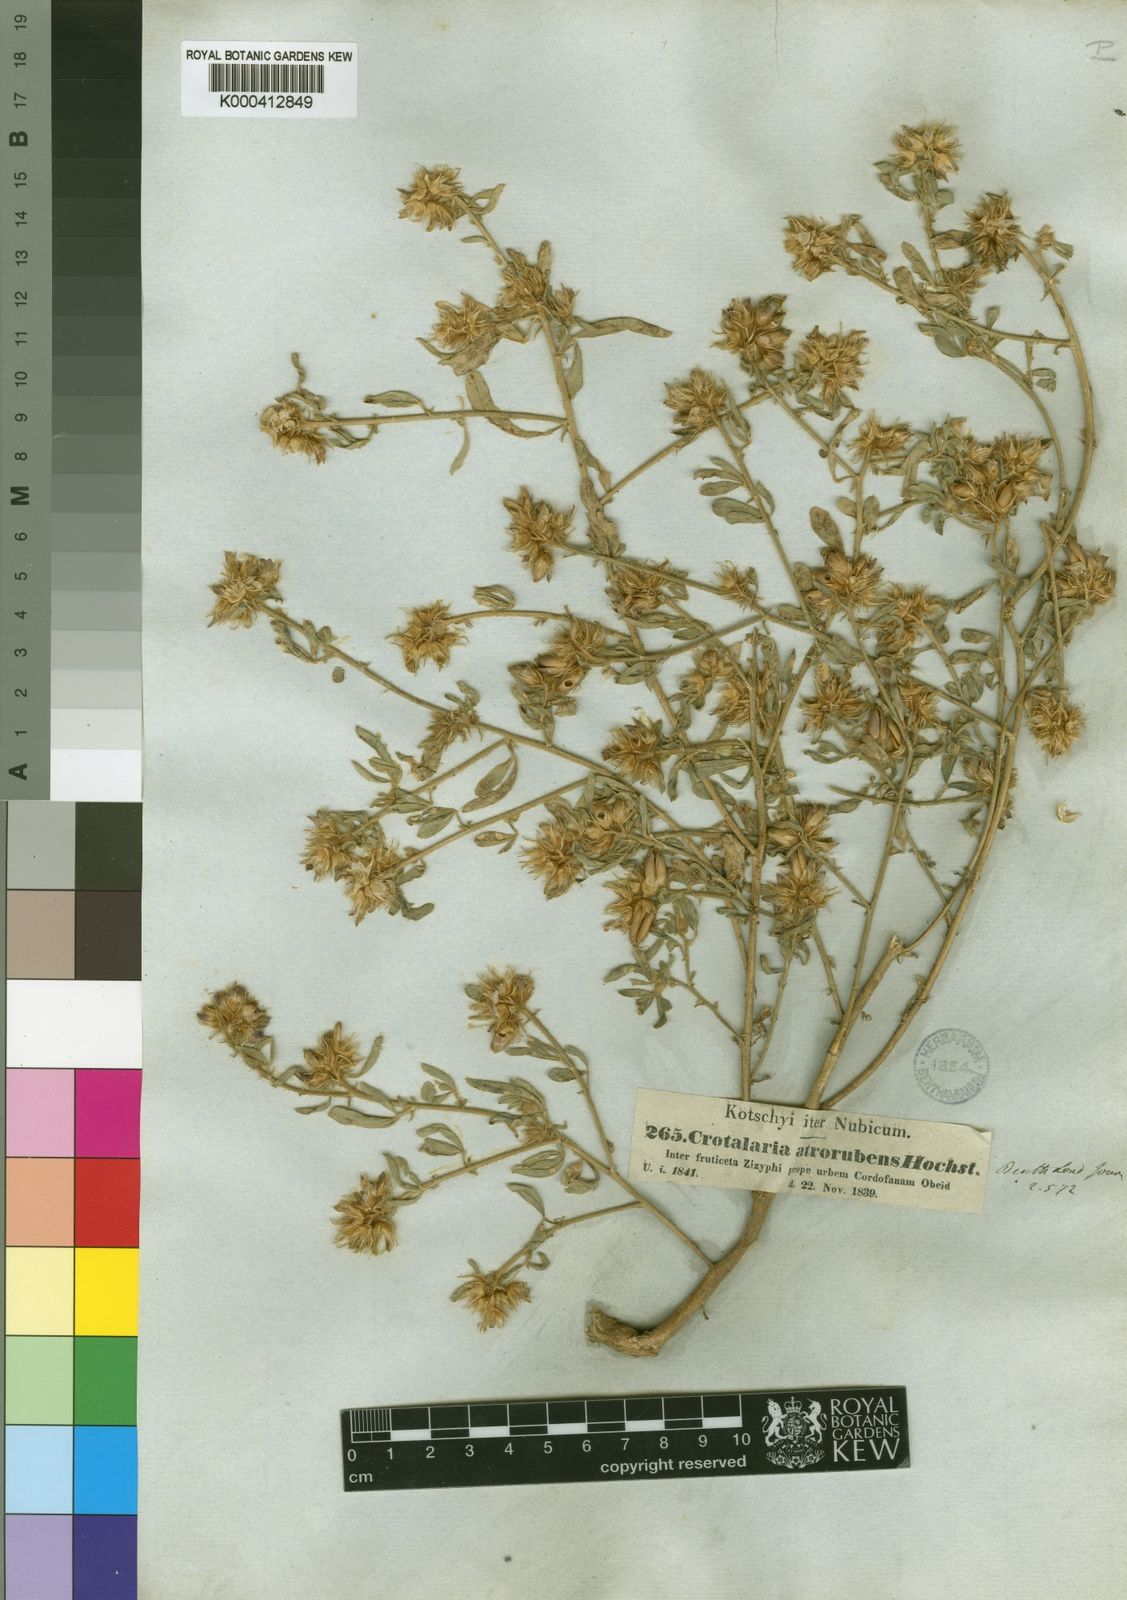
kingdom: Plantae
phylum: Tracheophyta
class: Magnoliopsida
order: Fabales
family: Fabaceae
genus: Crotalaria
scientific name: Crotalaria atrorubens
